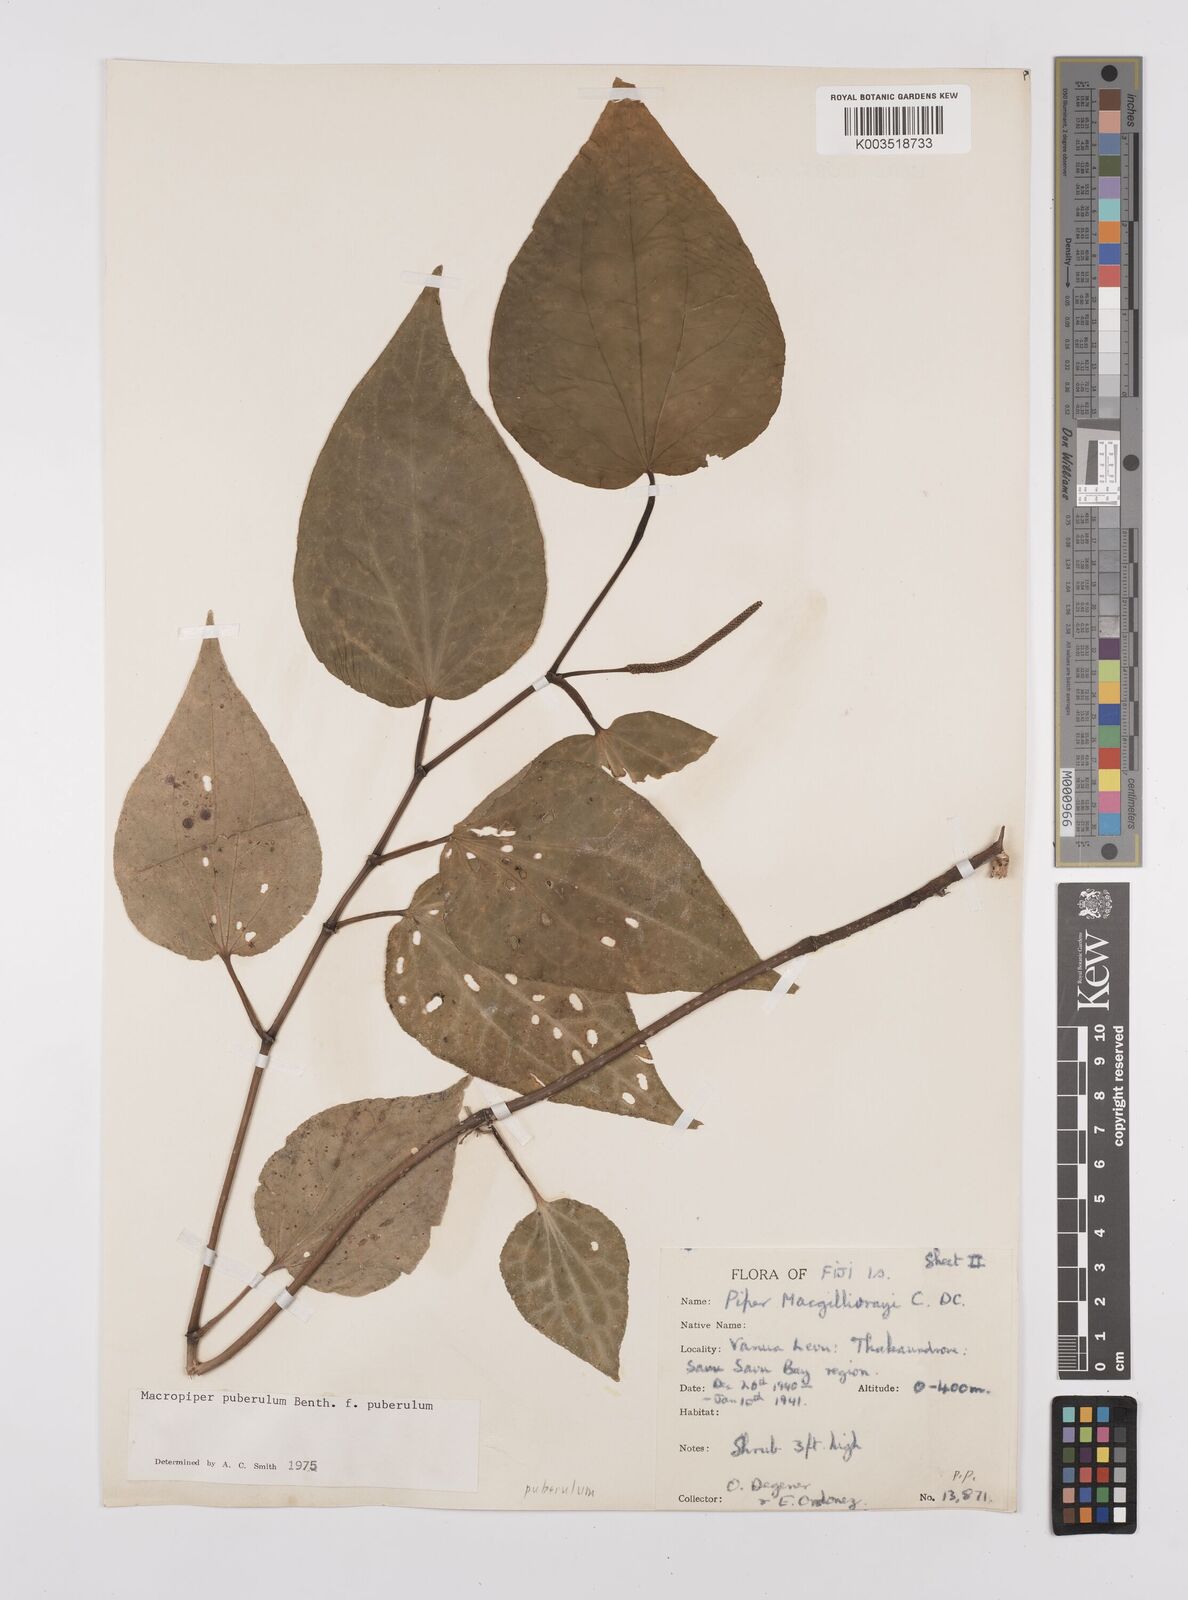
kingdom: Plantae
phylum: Tracheophyta
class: Magnoliopsida
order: Piperales
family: Piperaceae
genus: Macropiper
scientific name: Macropiper puberulum
